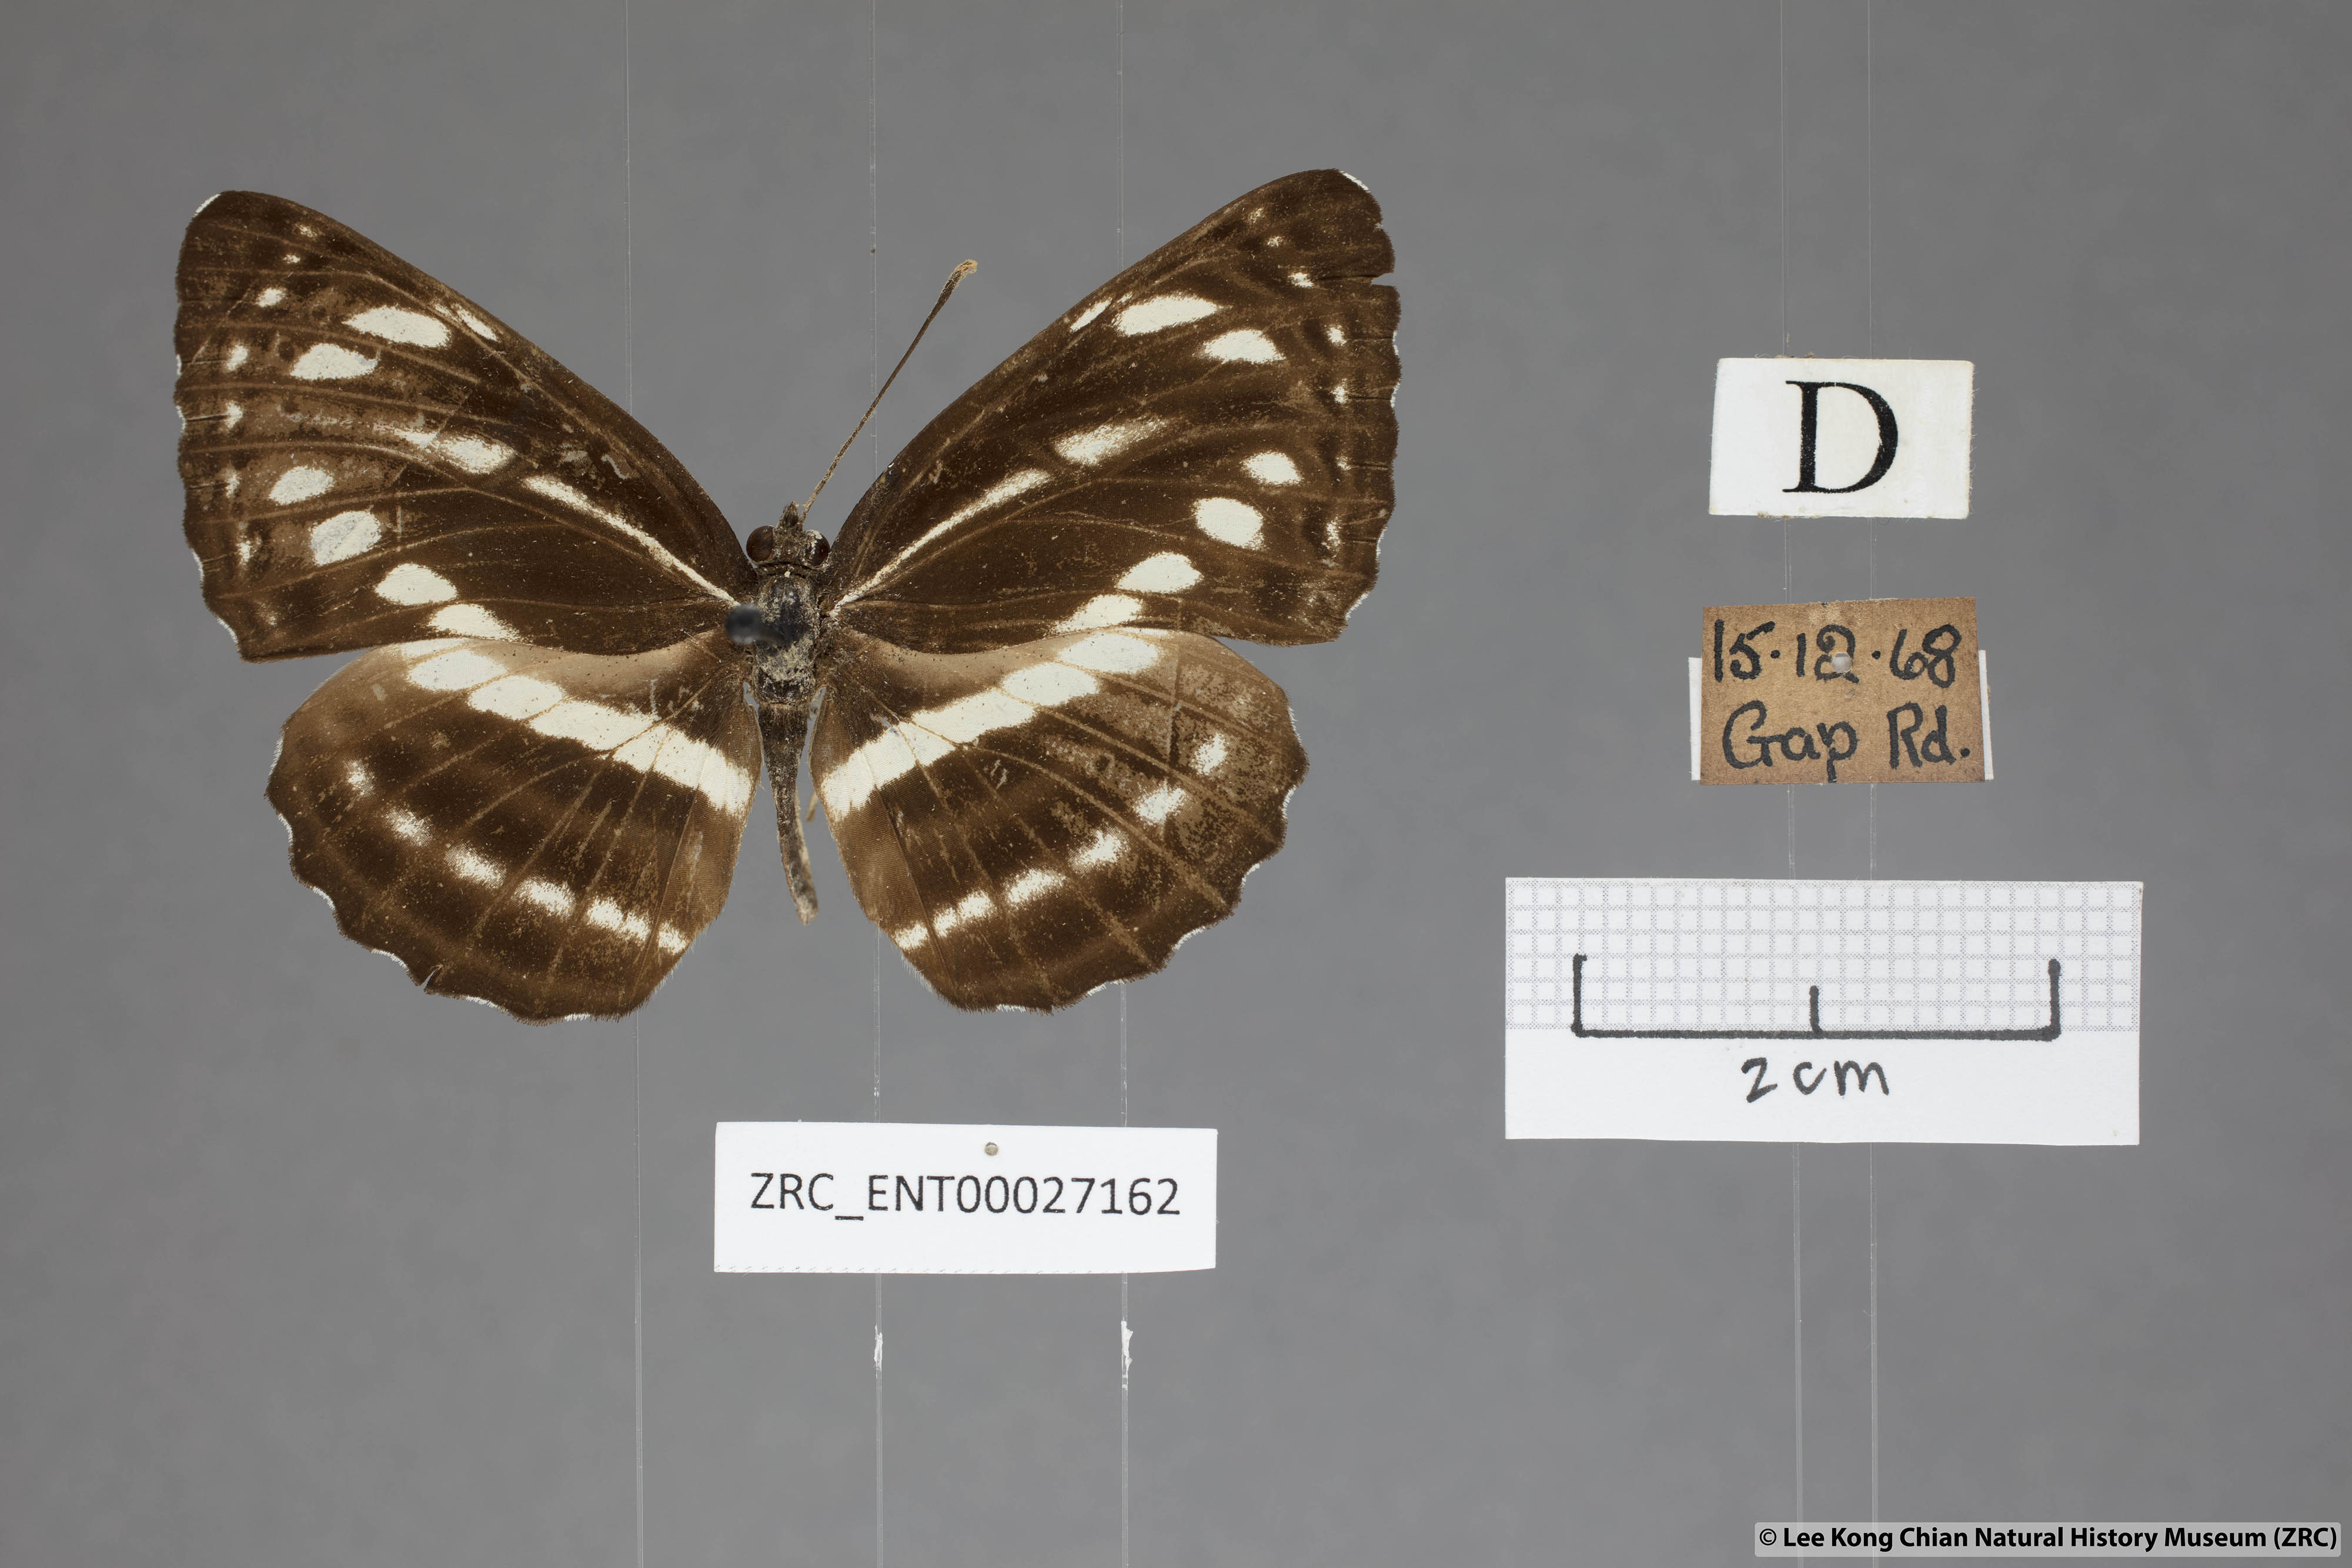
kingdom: Animalia
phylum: Arthropoda
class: Insecta
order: Lepidoptera
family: Nymphalidae
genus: Neptis
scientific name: Neptis nata
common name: Sullied brown sailer
